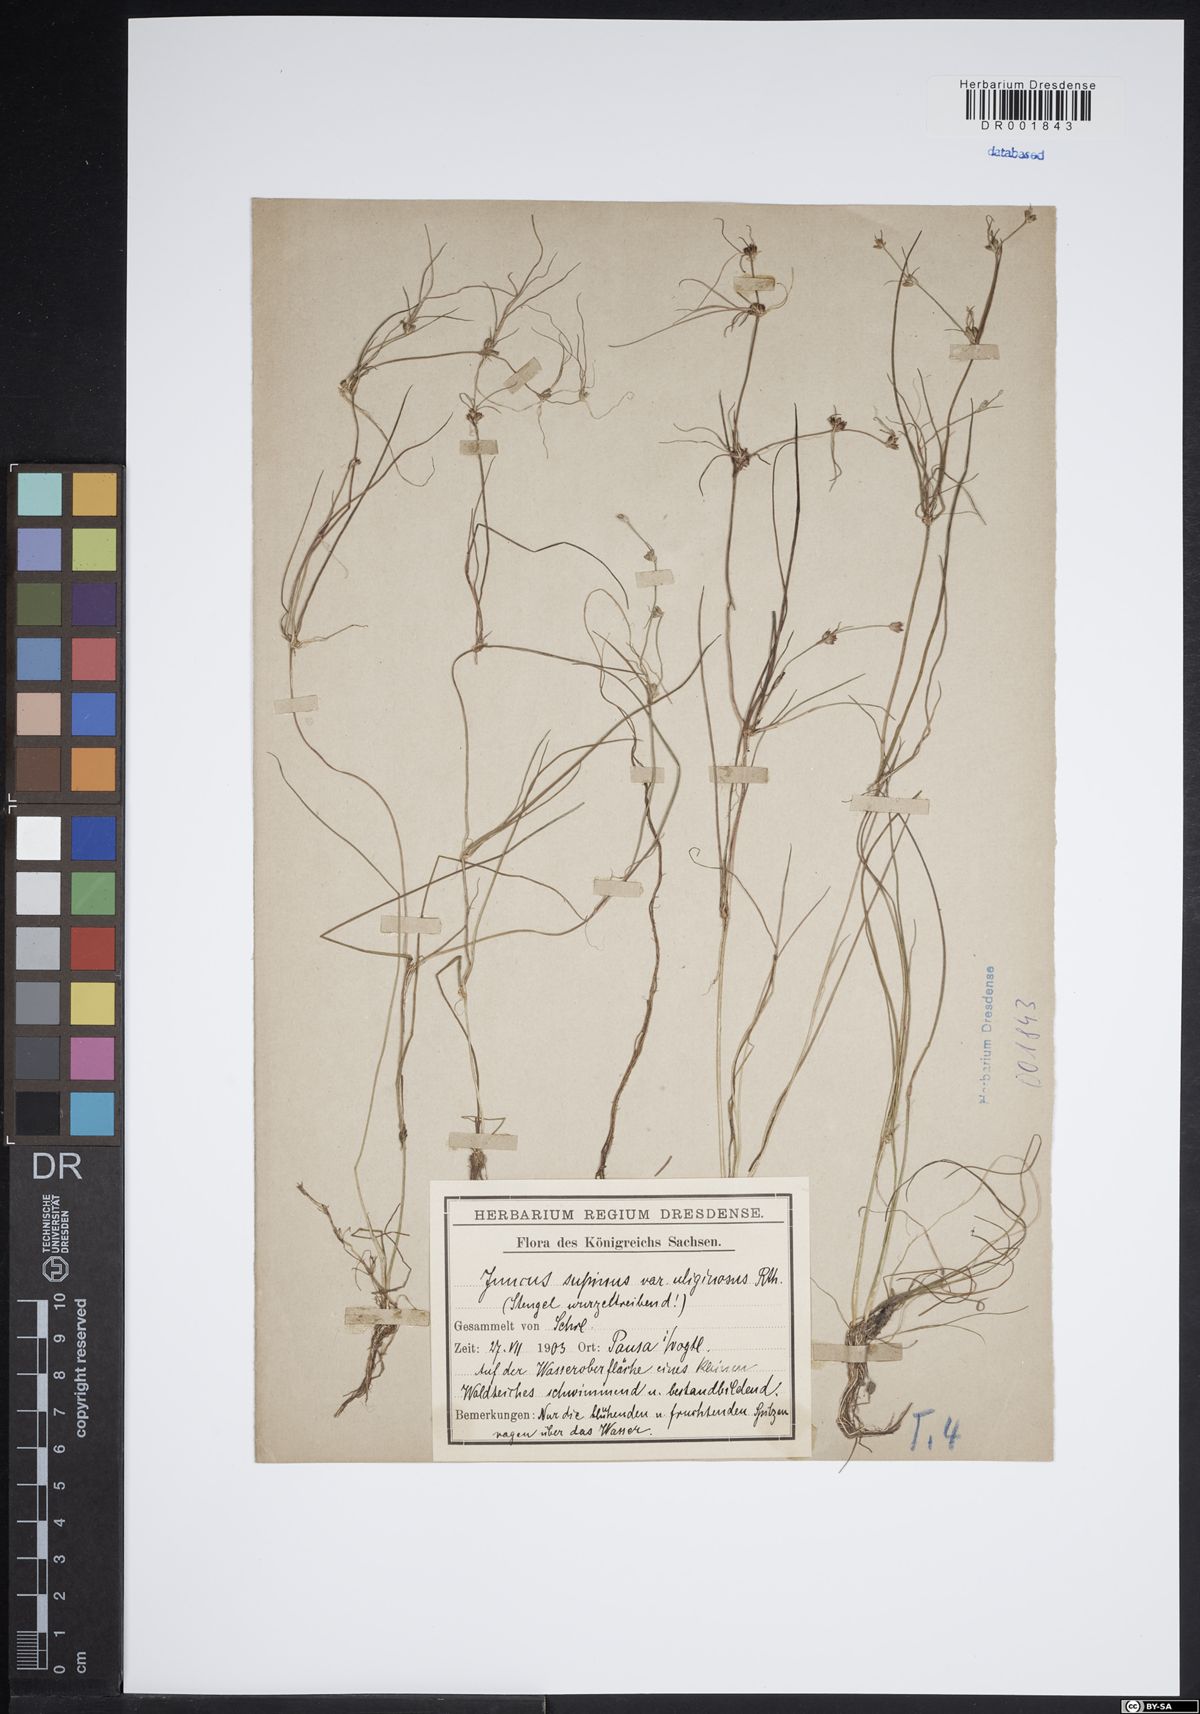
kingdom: Plantae
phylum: Tracheophyta
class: Liliopsida
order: Poales
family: Juncaceae
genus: Juncus
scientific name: Juncus bulbosus
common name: Bulbous rush
